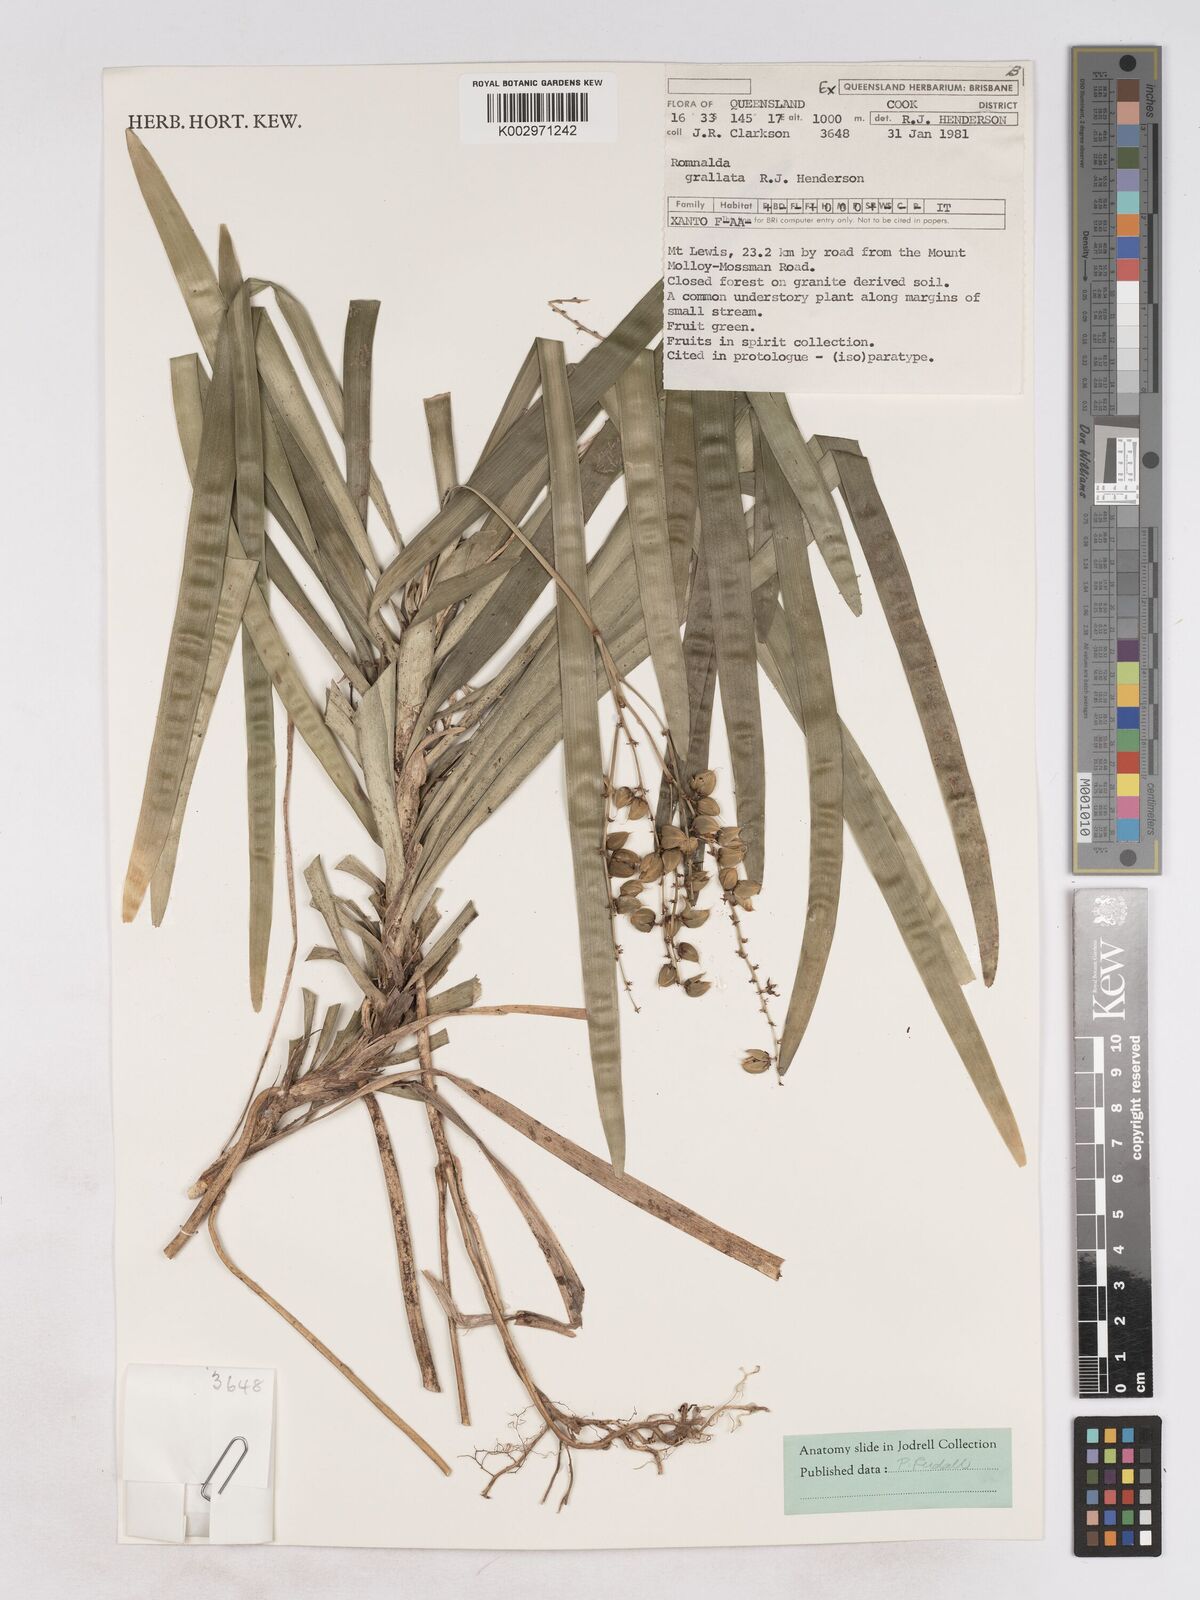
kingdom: Plantae
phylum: Tracheophyta
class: Liliopsida
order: Asparagales
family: Asparagaceae
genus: Romnalda
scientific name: Romnalda grallata
